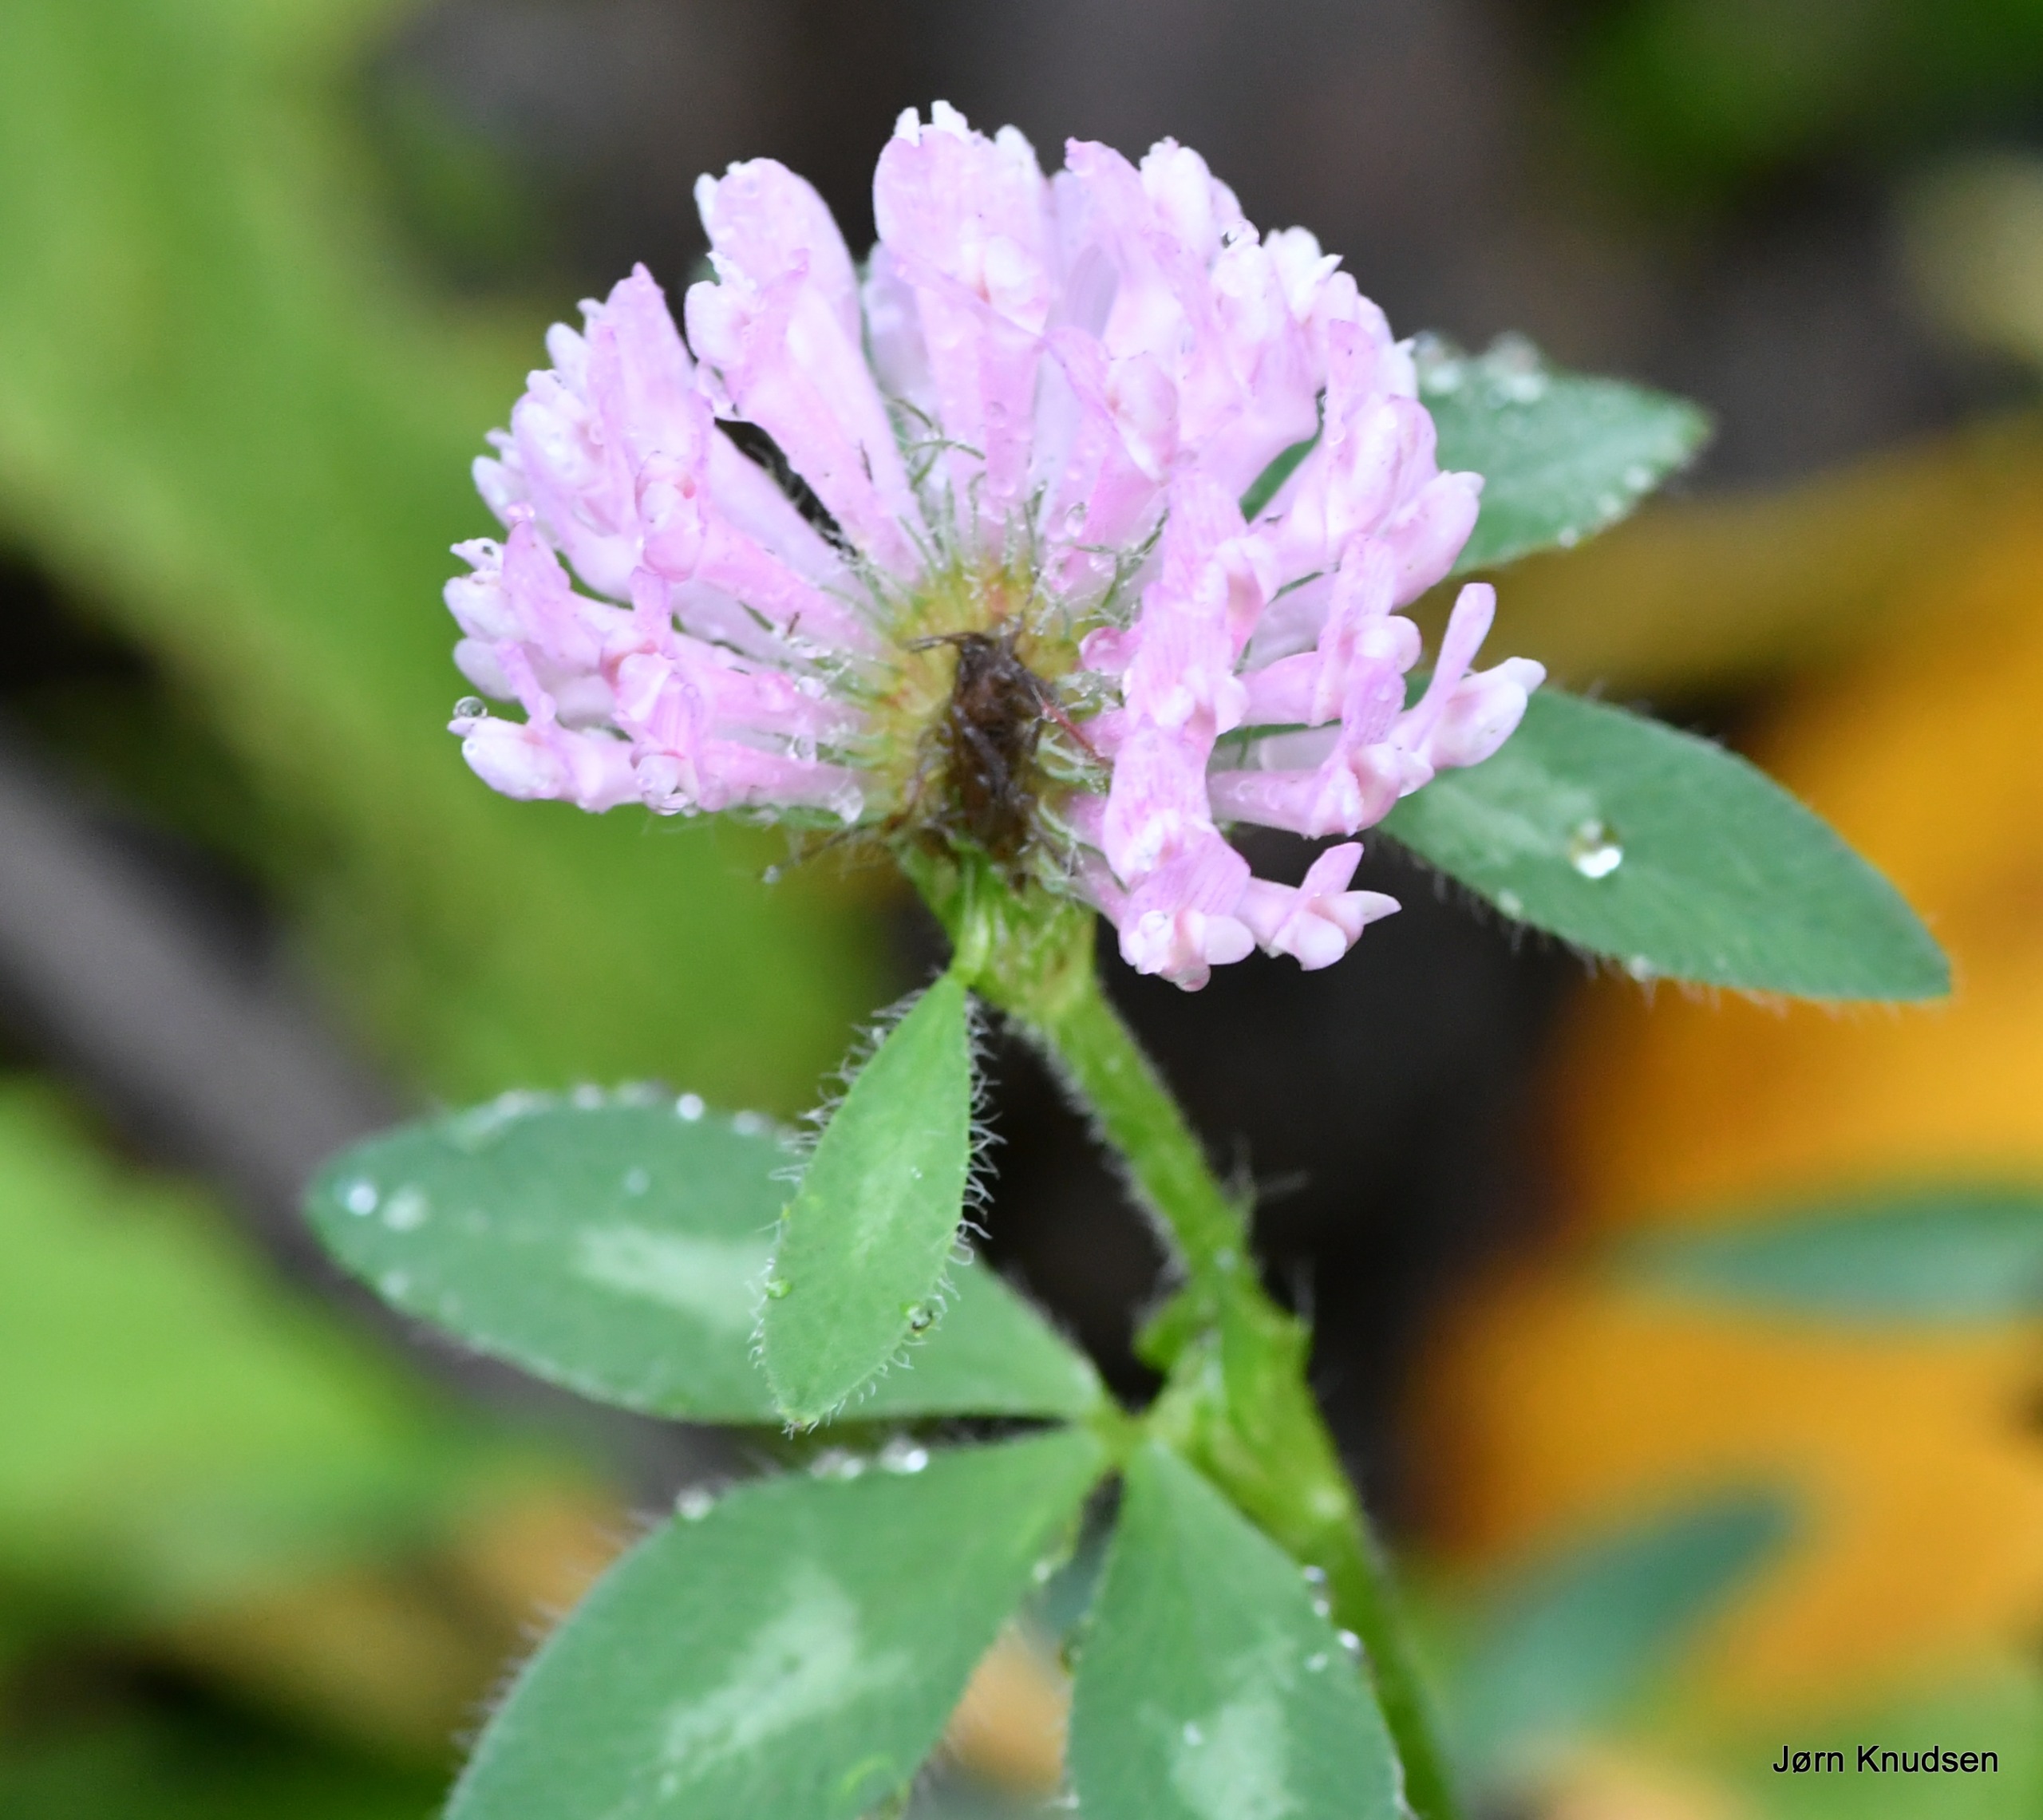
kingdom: Plantae
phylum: Tracheophyta
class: Magnoliopsida
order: Fabales
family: Fabaceae
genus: Trifolium
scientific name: Trifolium pratense
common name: Rød-kløver
